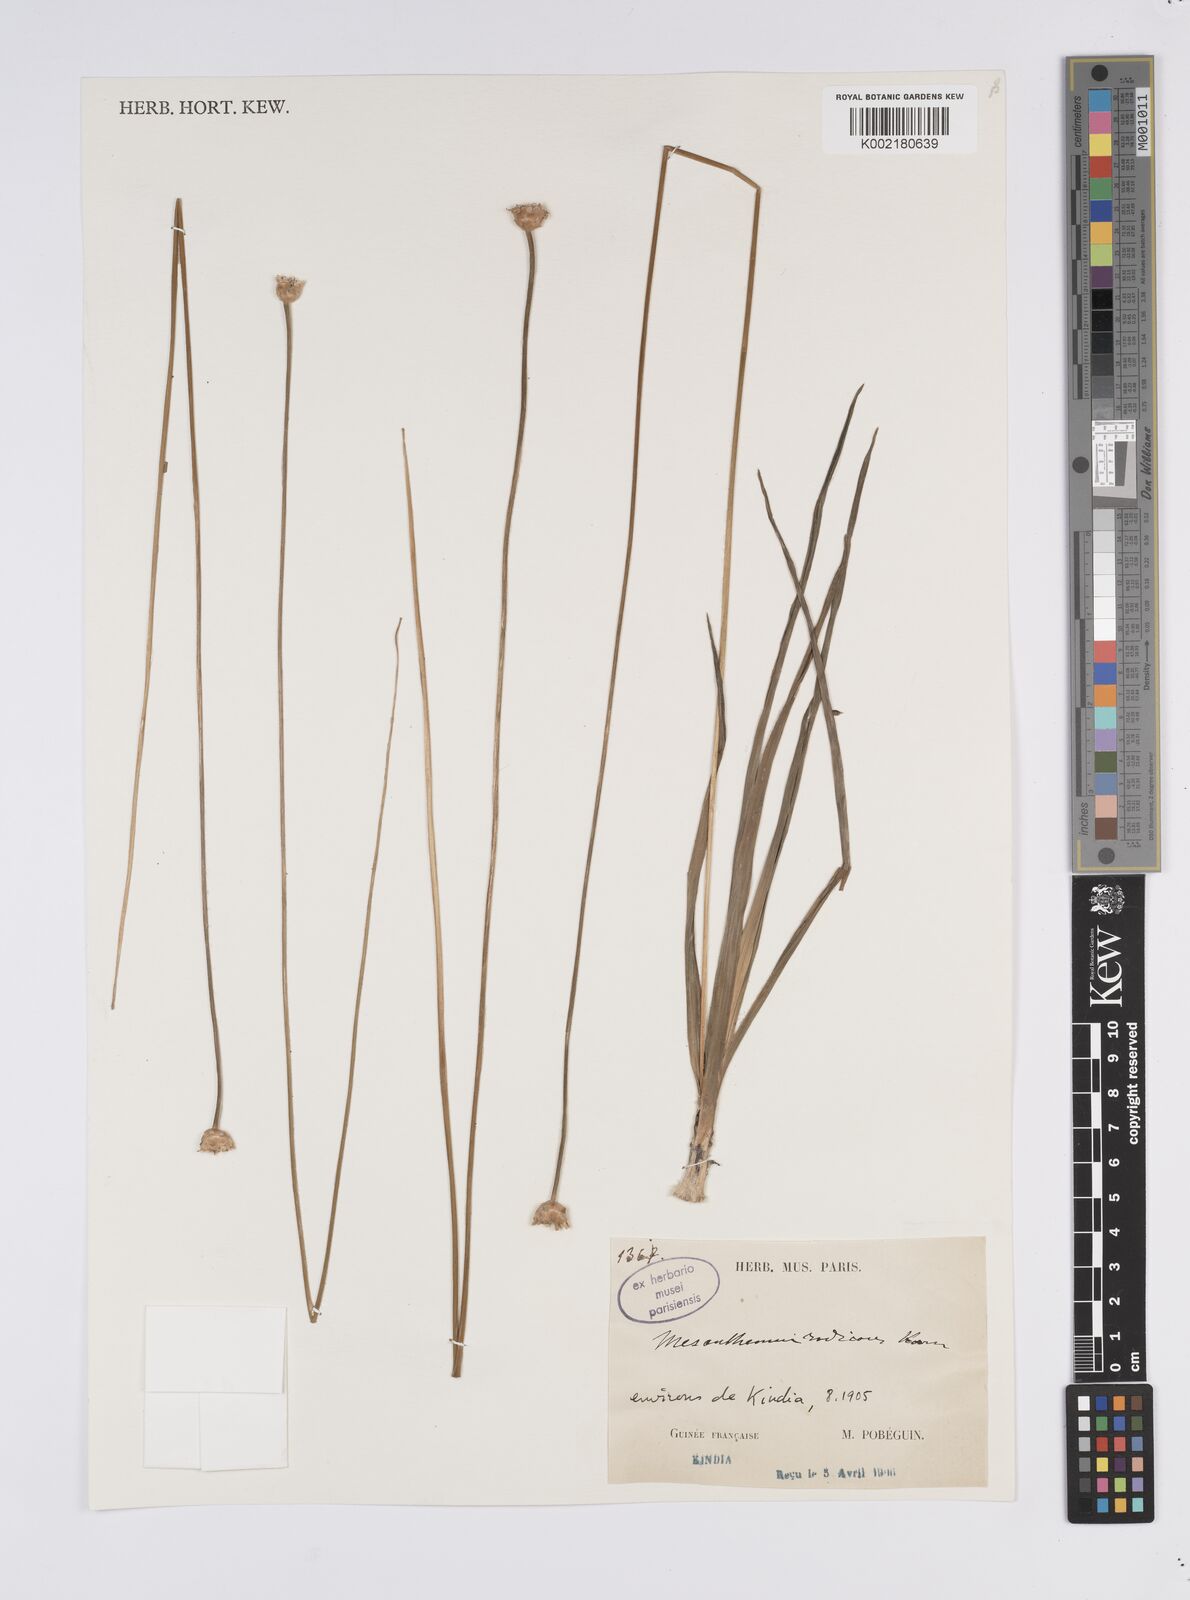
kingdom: Plantae
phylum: Tracheophyta
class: Liliopsida
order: Poales
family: Eriocaulaceae
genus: Mesanthemum
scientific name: Mesanthemum radicans
